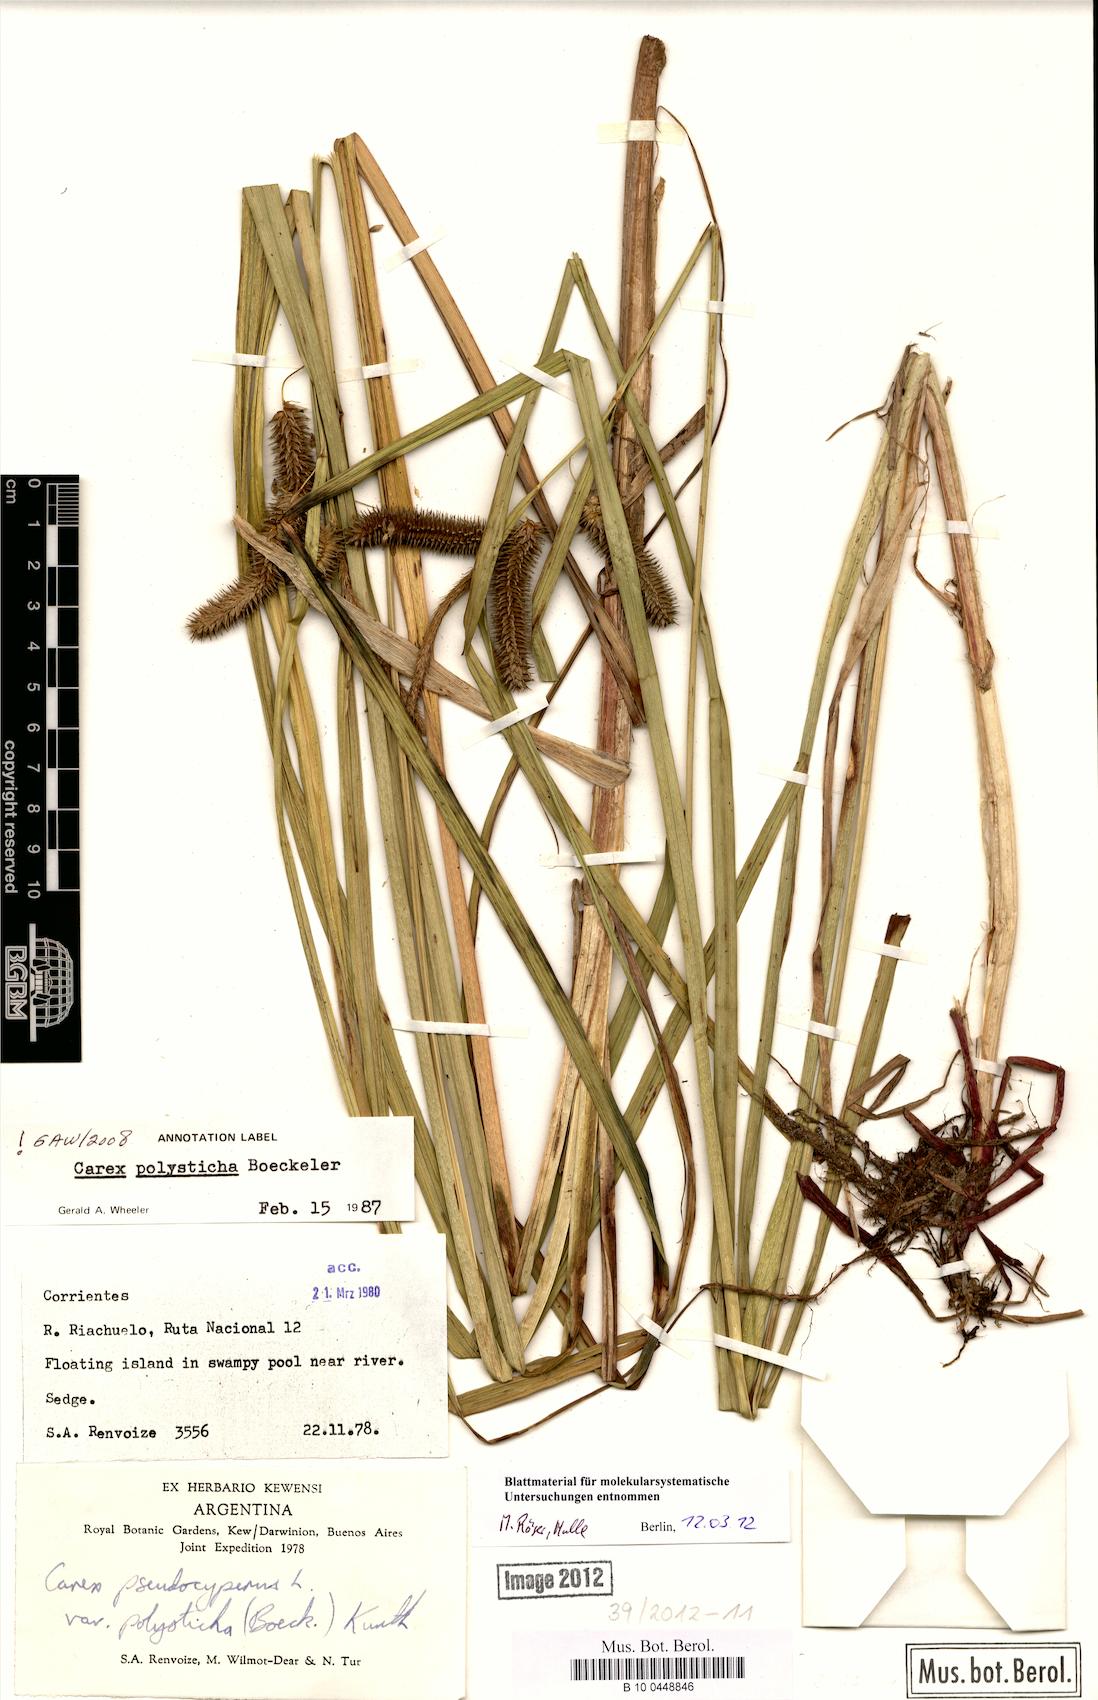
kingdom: Plantae
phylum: Tracheophyta
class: Liliopsida
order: Poales
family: Cyperaceae
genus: Carex
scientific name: Carex polysticha
